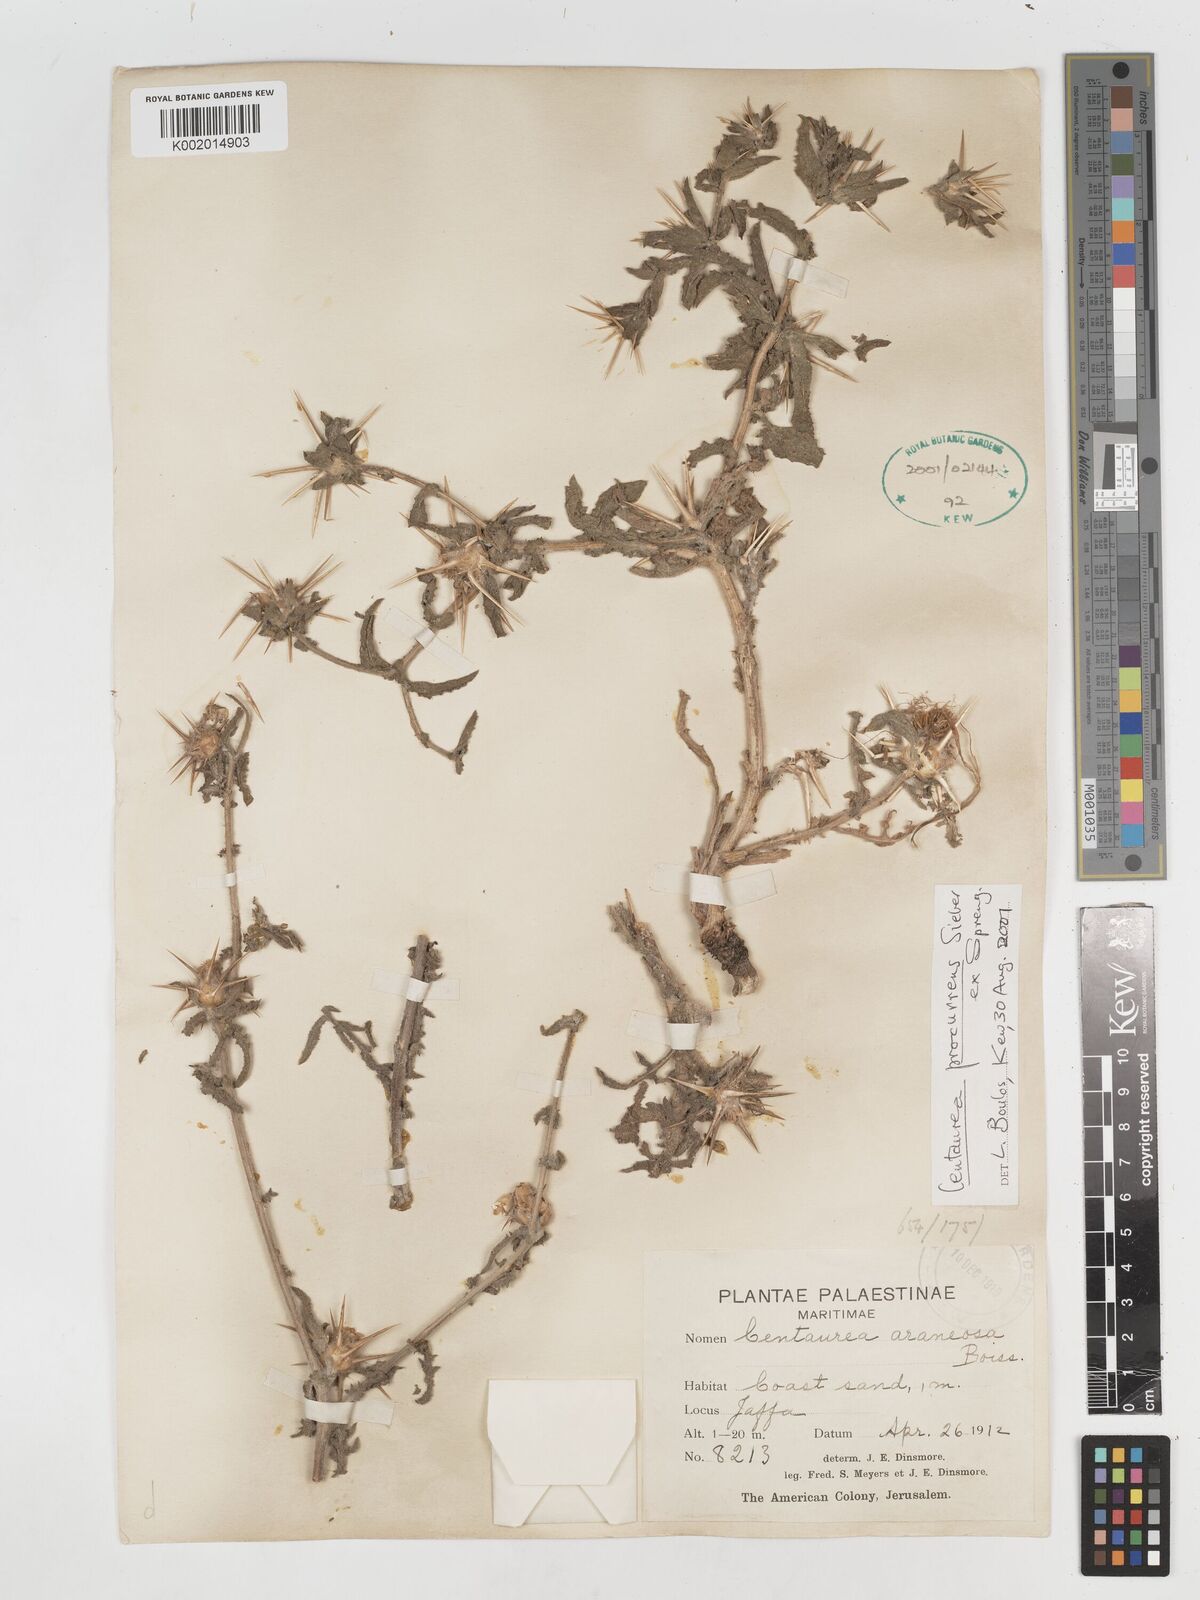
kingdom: Plantae
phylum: Tracheophyta
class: Magnoliopsida
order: Asterales
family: Asteraceae
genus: Centaurea
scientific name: Centaurea procurrens
